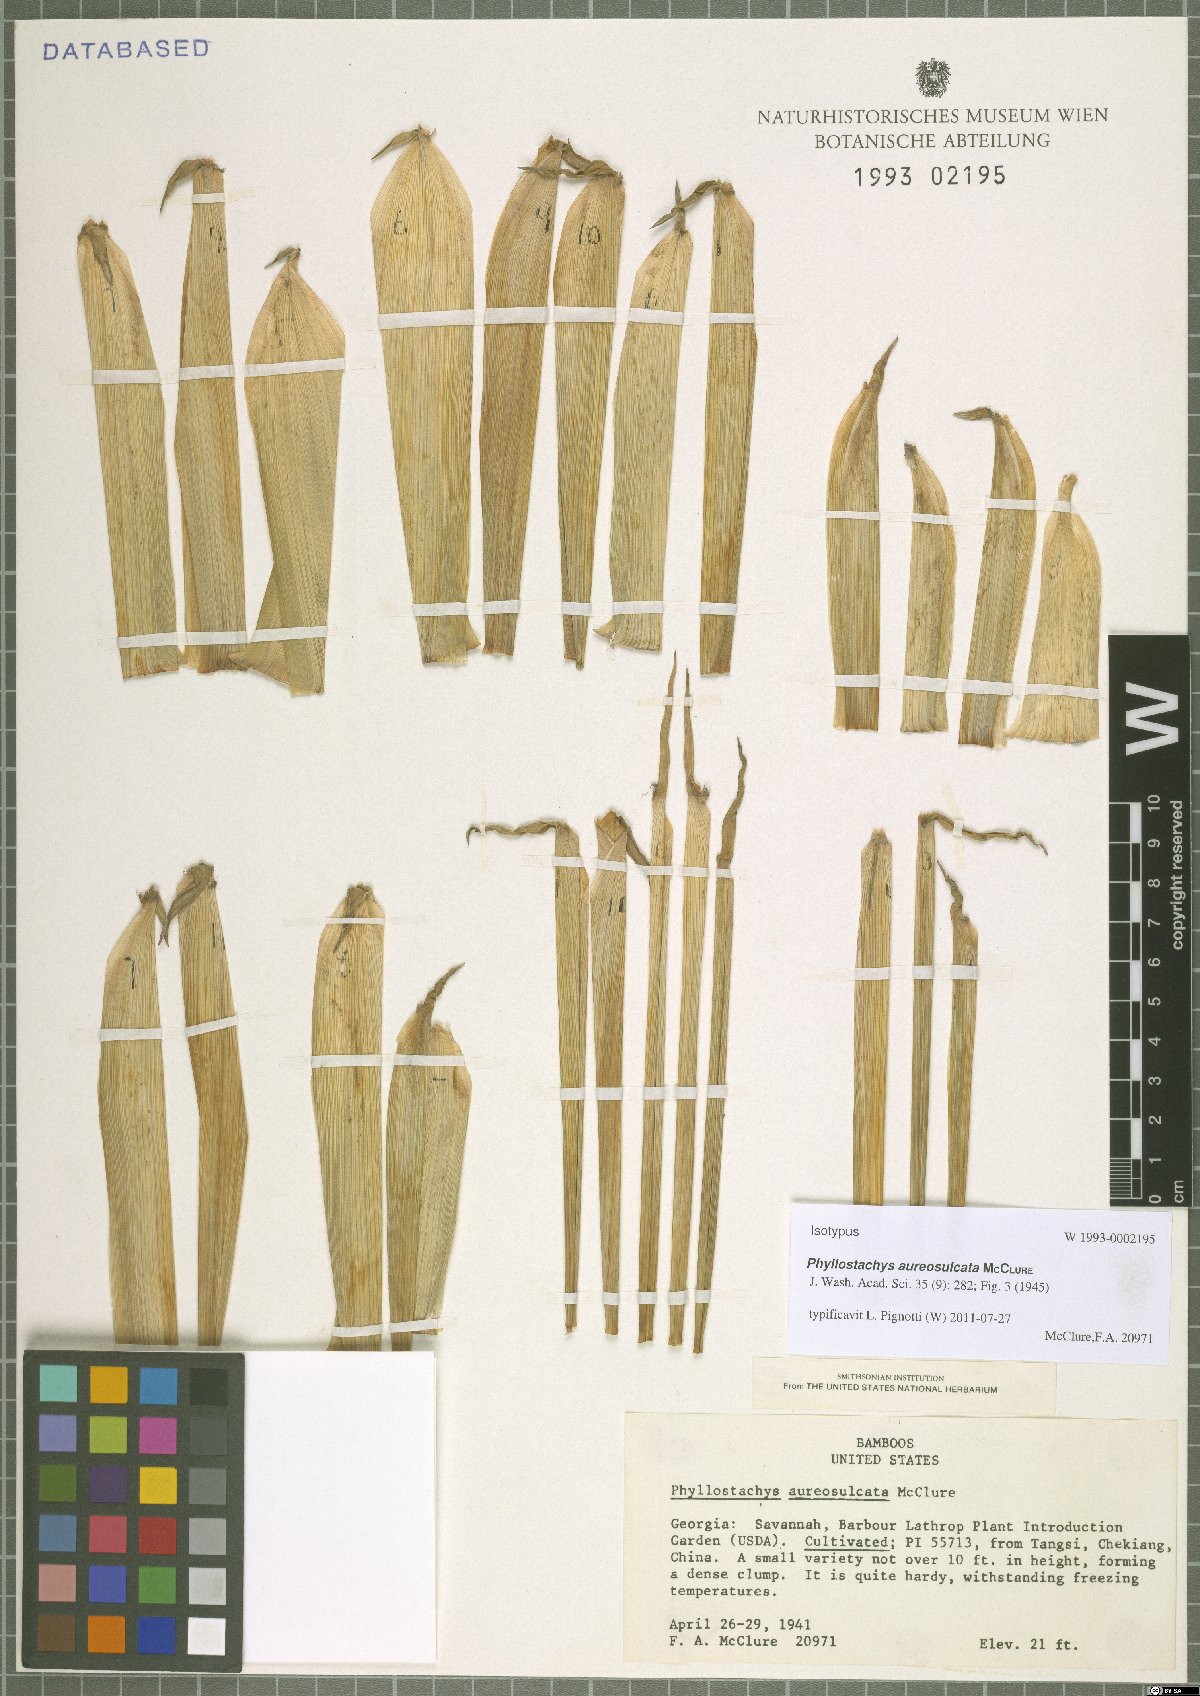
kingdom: Plantae
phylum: Tracheophyta
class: Liliopsida
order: Poales
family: Poaceae
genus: Phyllostachys
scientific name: Phyllostachys aureosulcata
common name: Yellow groove bamboo
